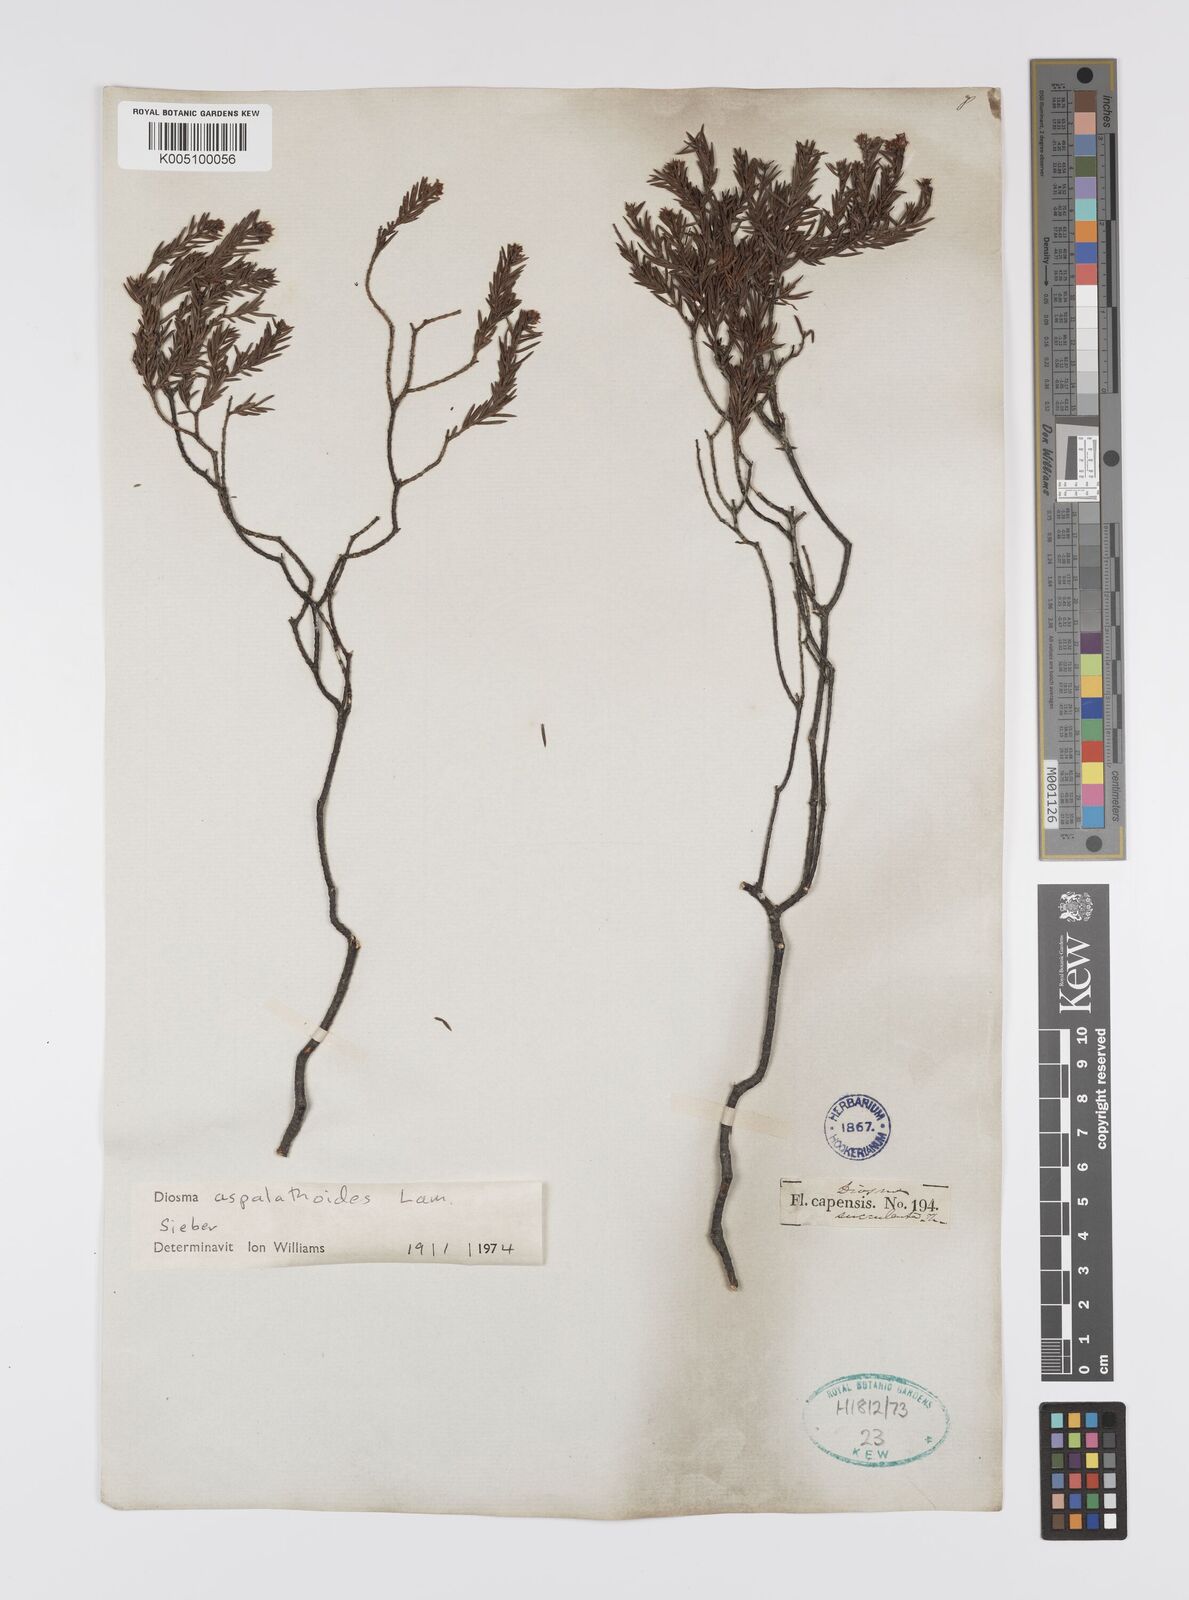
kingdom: Plantae
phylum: Tracheophyta
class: Magnoliopsida
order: Sapindales
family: Rutaceae
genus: Diosma
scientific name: Diosma aspalathoides
